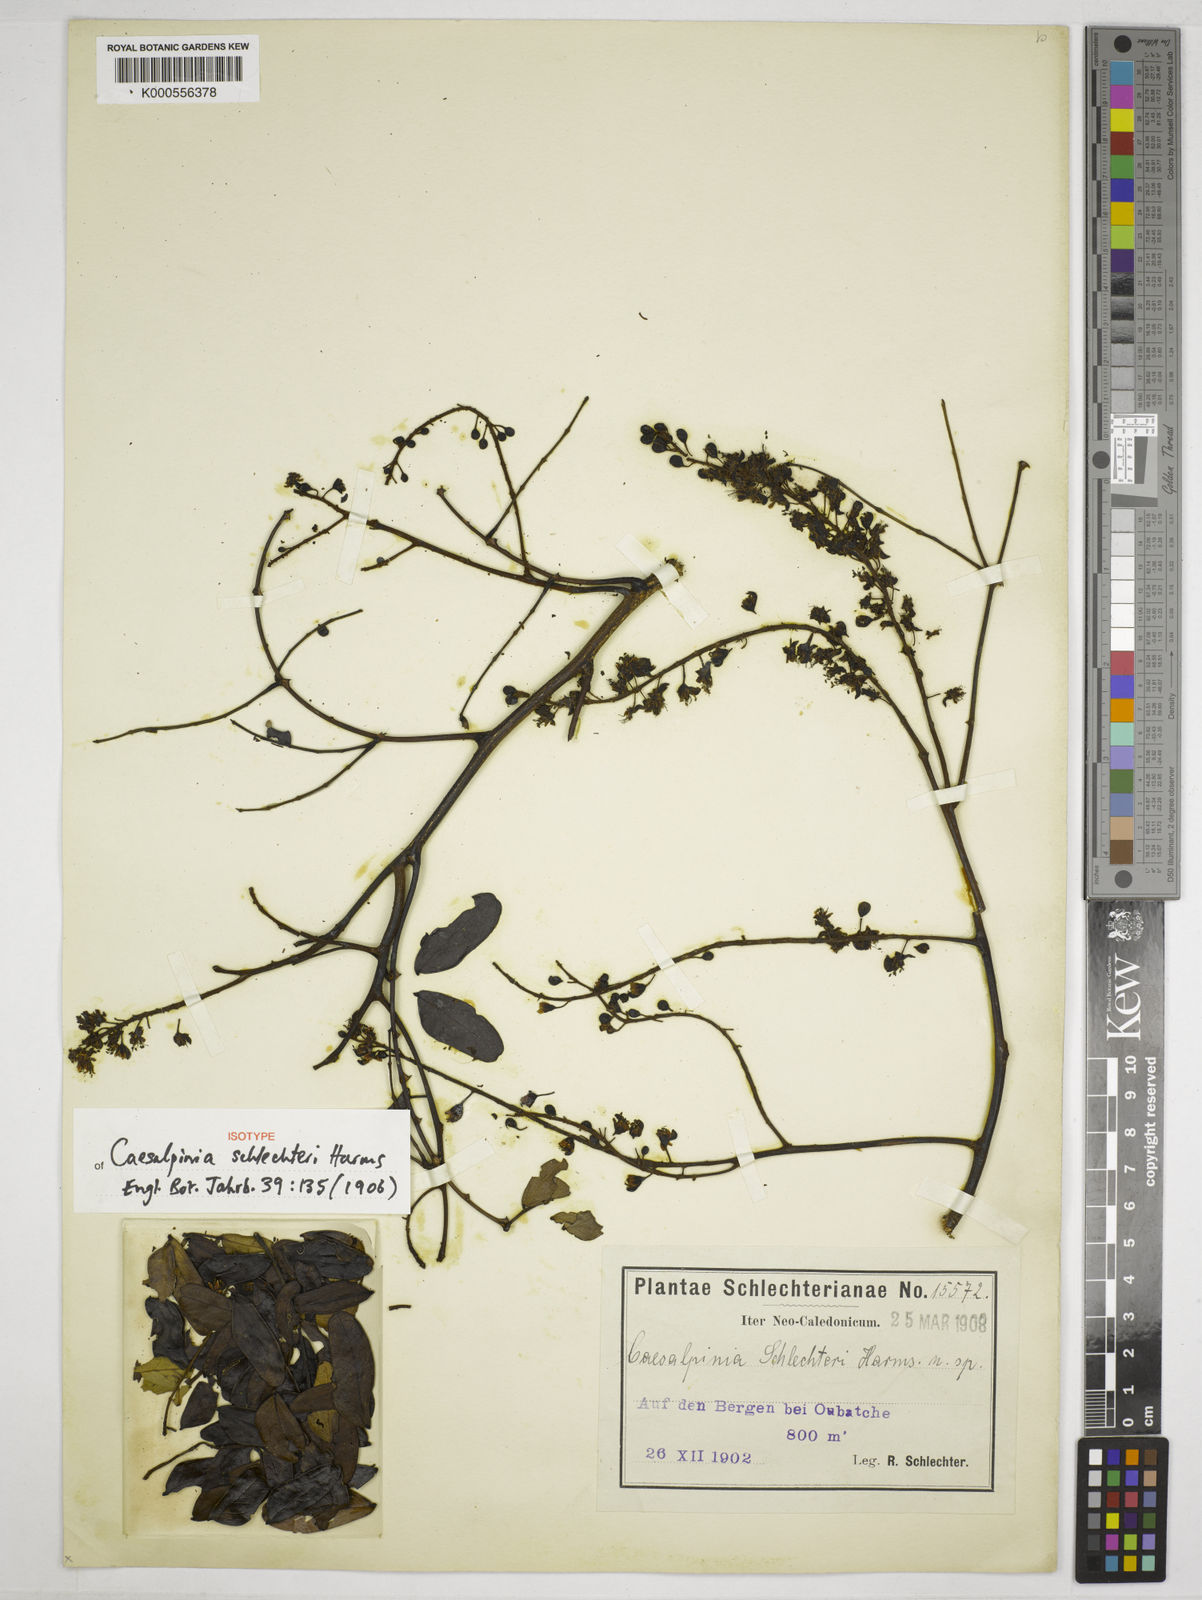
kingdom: Plantae
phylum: Tracheophyta
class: Magnoliopsida
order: Fabales
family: Fabaceae
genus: Mezoneuron
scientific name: Mezoneuron schlechteri
